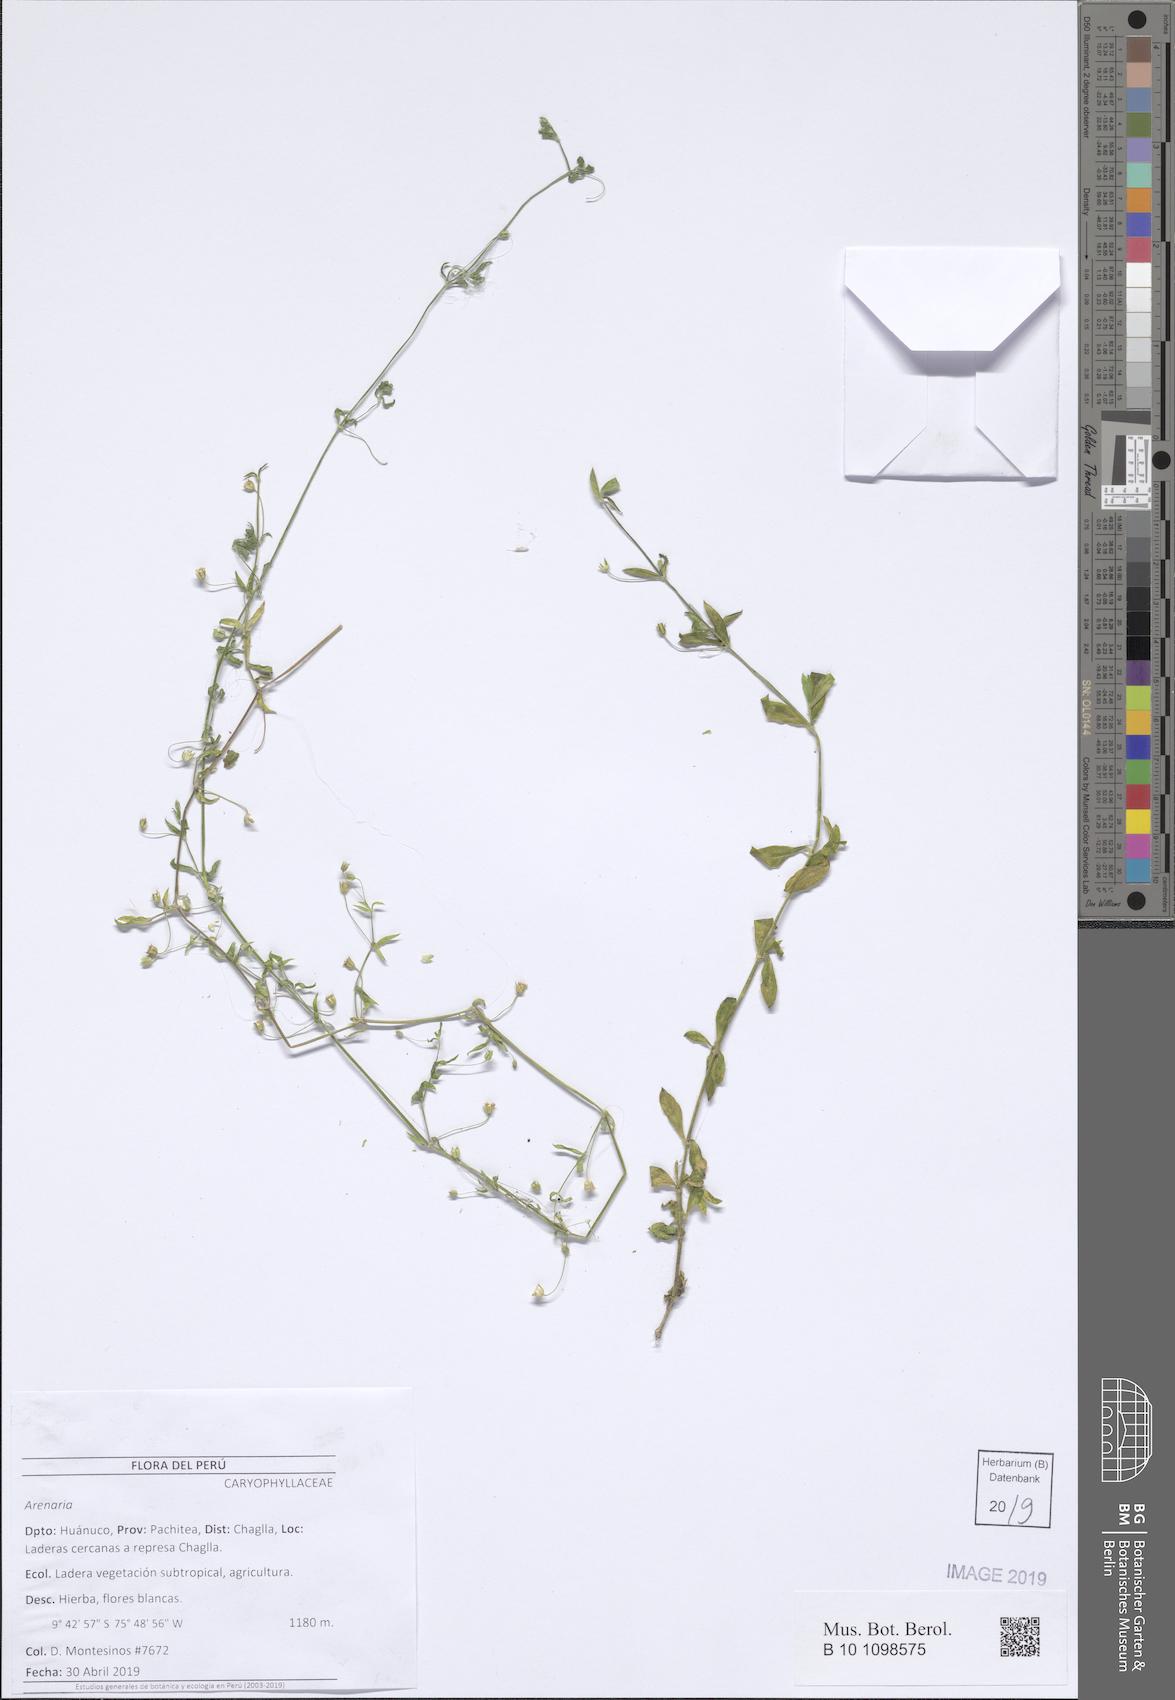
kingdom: Plantae
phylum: Tracheophyta
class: Magnoliopsida
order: Caryophyllales
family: Caryophyllaceae
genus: Arenaria
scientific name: Arenaria lanuginosa
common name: Spread sandwort
